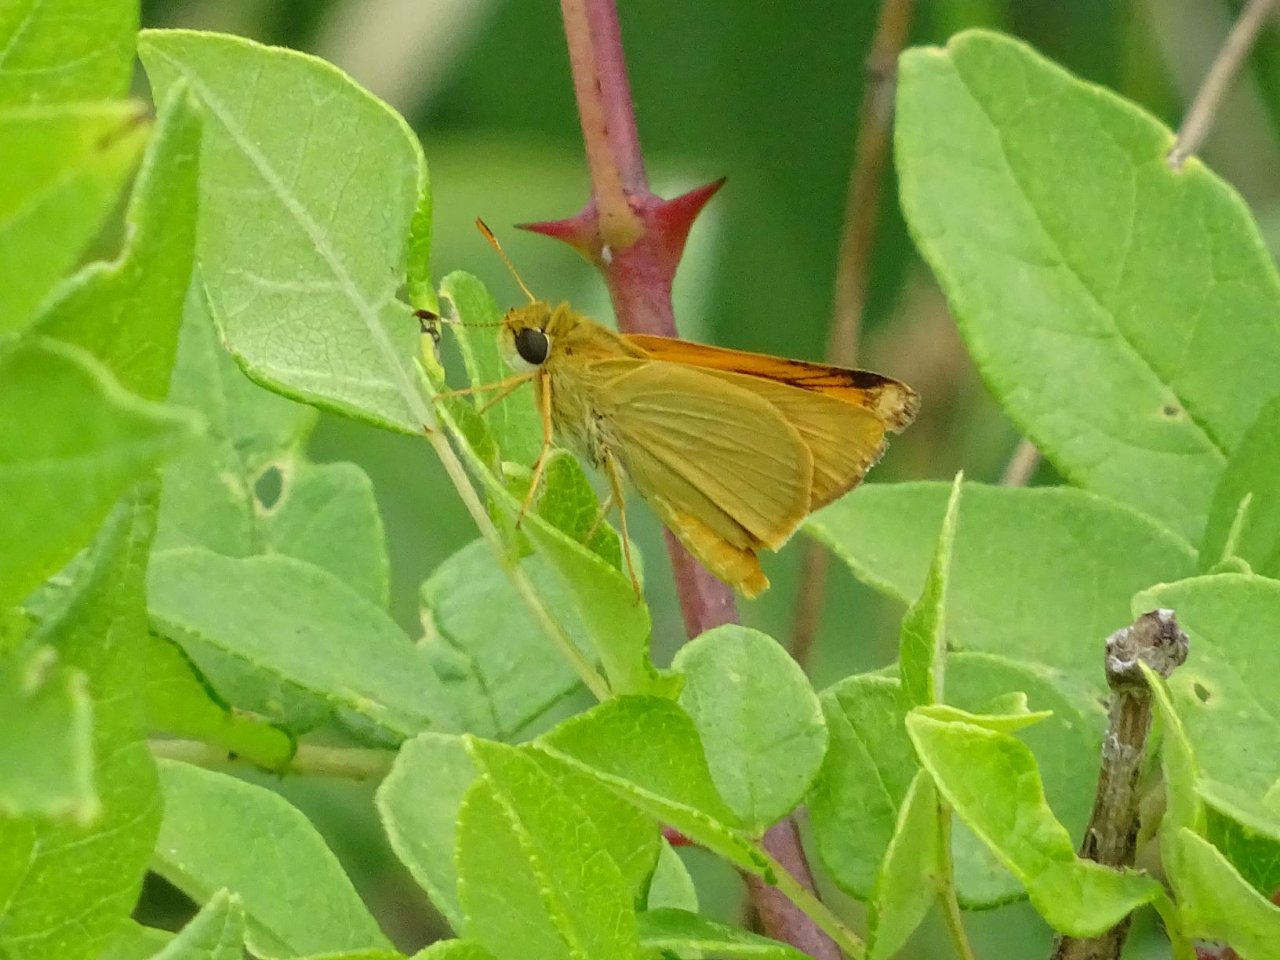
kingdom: Animalia
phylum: Arthropoda
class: Insecta
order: Lepidoptera
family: Hesperiidae
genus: Atrytone
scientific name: Atrytone delaware
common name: Delaware Skipper
